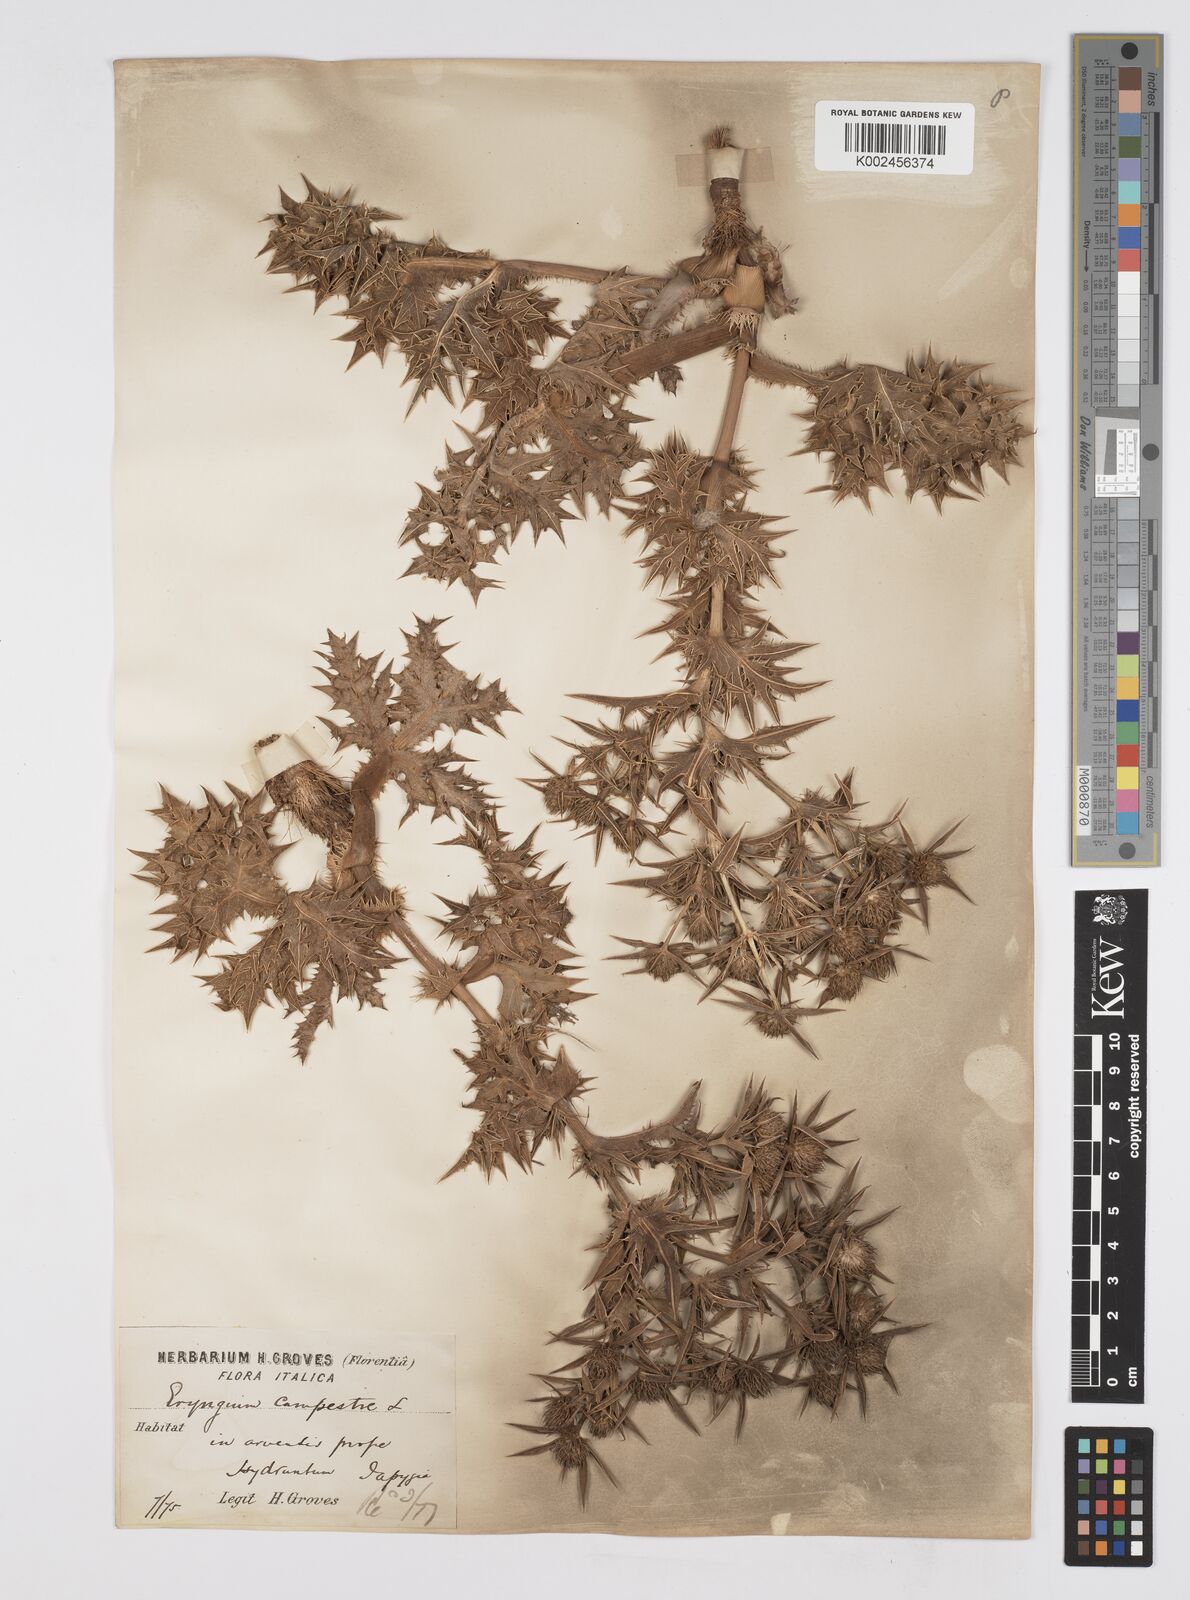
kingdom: Plantae
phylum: Tracheophyta
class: Magnoliopsida
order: Apiales
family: Apiaceae
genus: Eryngium
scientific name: Eryngium campestre
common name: Field eryngo
